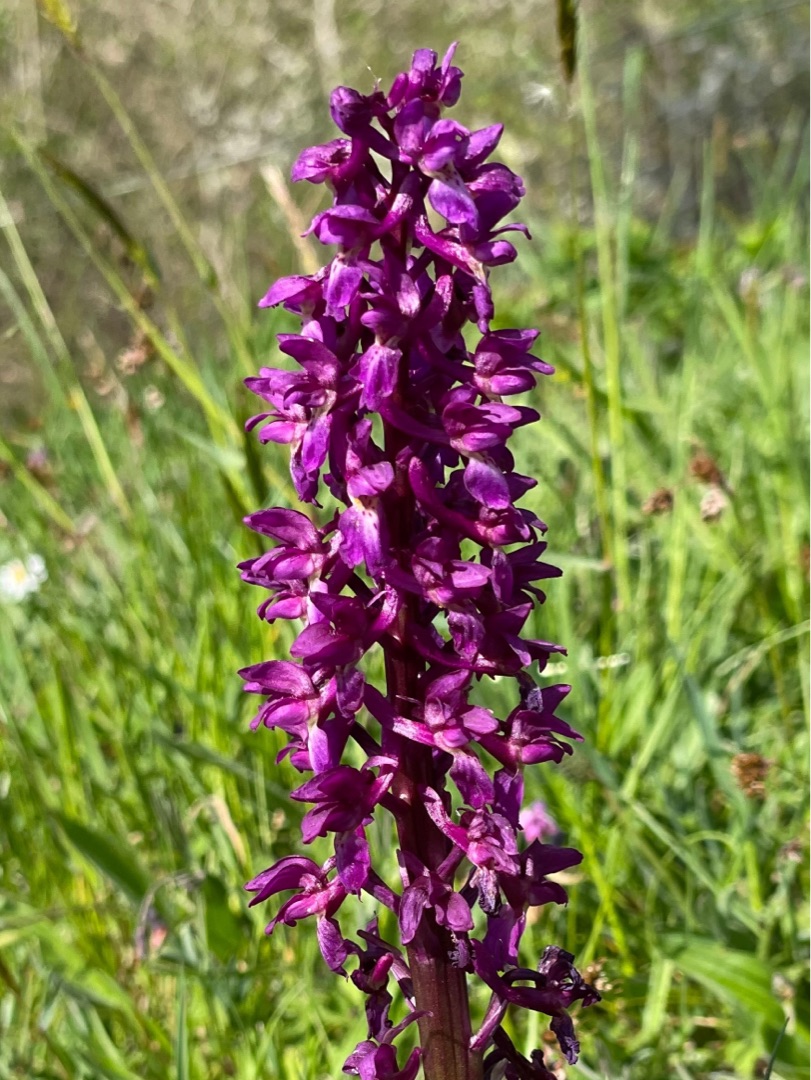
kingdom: Plantae
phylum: Tracheophyta
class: Liliopsida
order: Asparagales
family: Orchidaceae
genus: Orchis
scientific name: Orchis mascula
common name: Tyndakset gøgeurt
